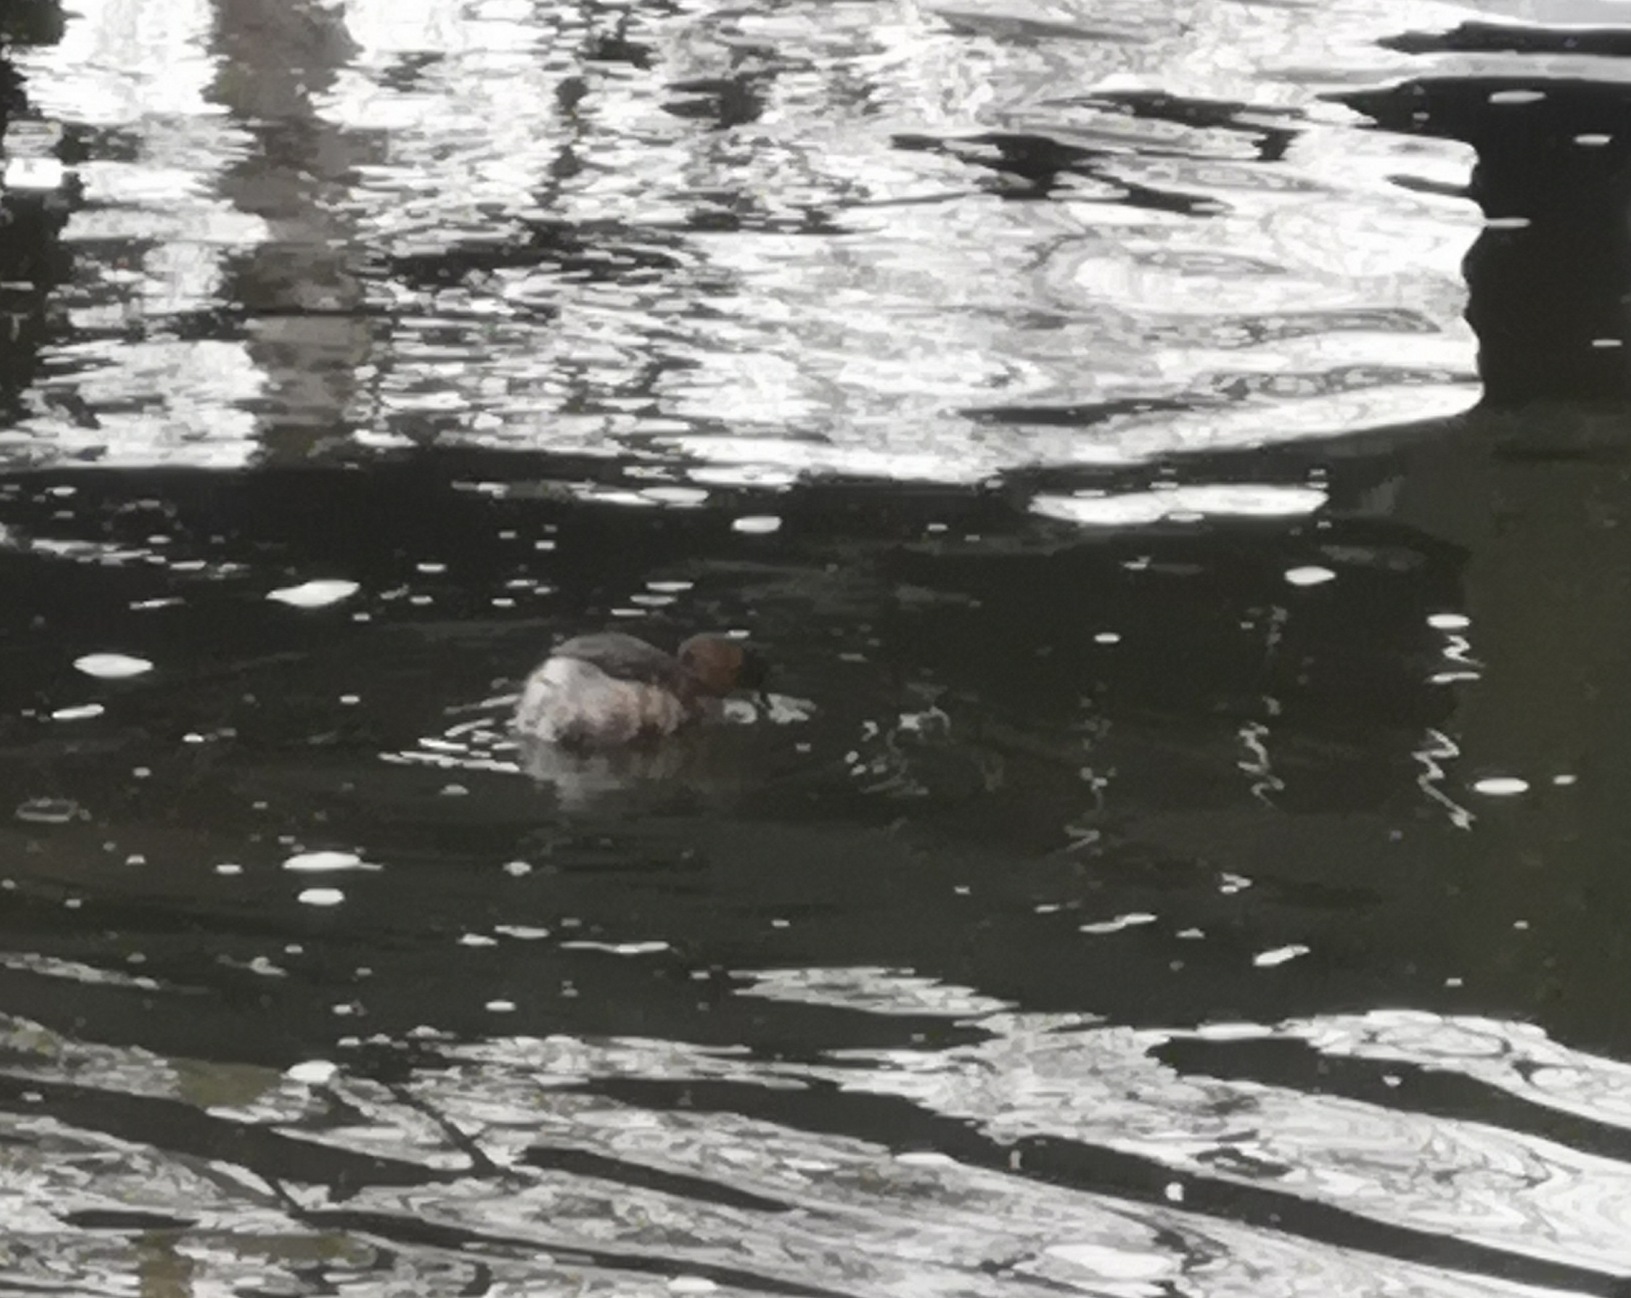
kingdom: Animalia
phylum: Chordata
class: Aves
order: Podicipediformes
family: Podicipedidae
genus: Tachybaptus
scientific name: Tachybaptus ruficollis
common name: Lille lappedykker
